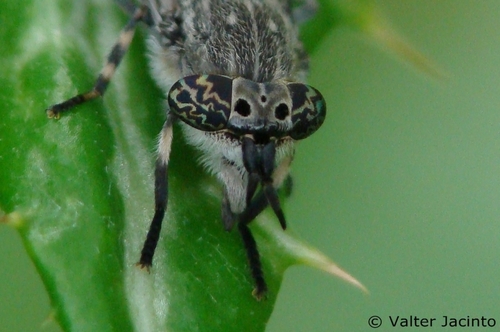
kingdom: Animalia
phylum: Arthropoda
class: Insecta
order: Diptera
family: Tabanidae
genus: Haematopota
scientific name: Haematopota ocelligera
